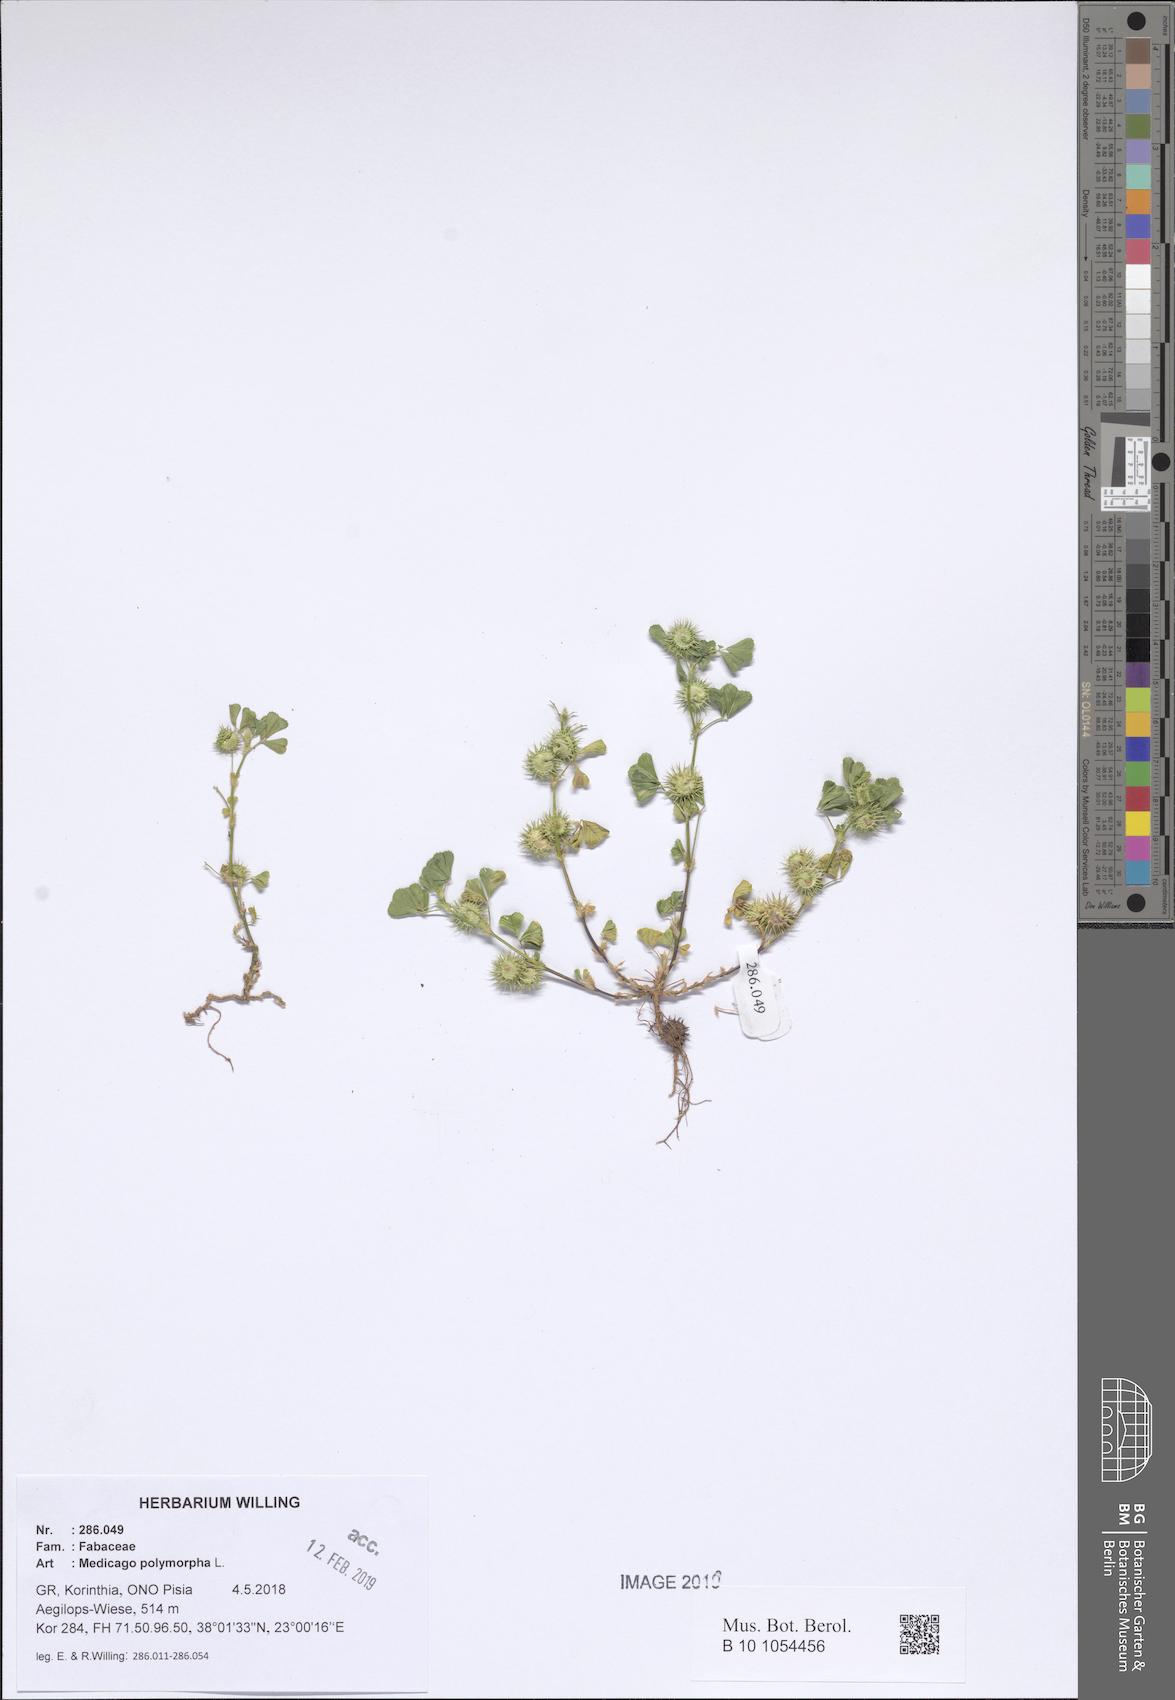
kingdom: Plantae
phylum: Tracheophyta
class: Magnoliopsida
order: Fabales
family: Fabaceae
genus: Medicago
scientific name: Medicago polymorpha
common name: Burclover
